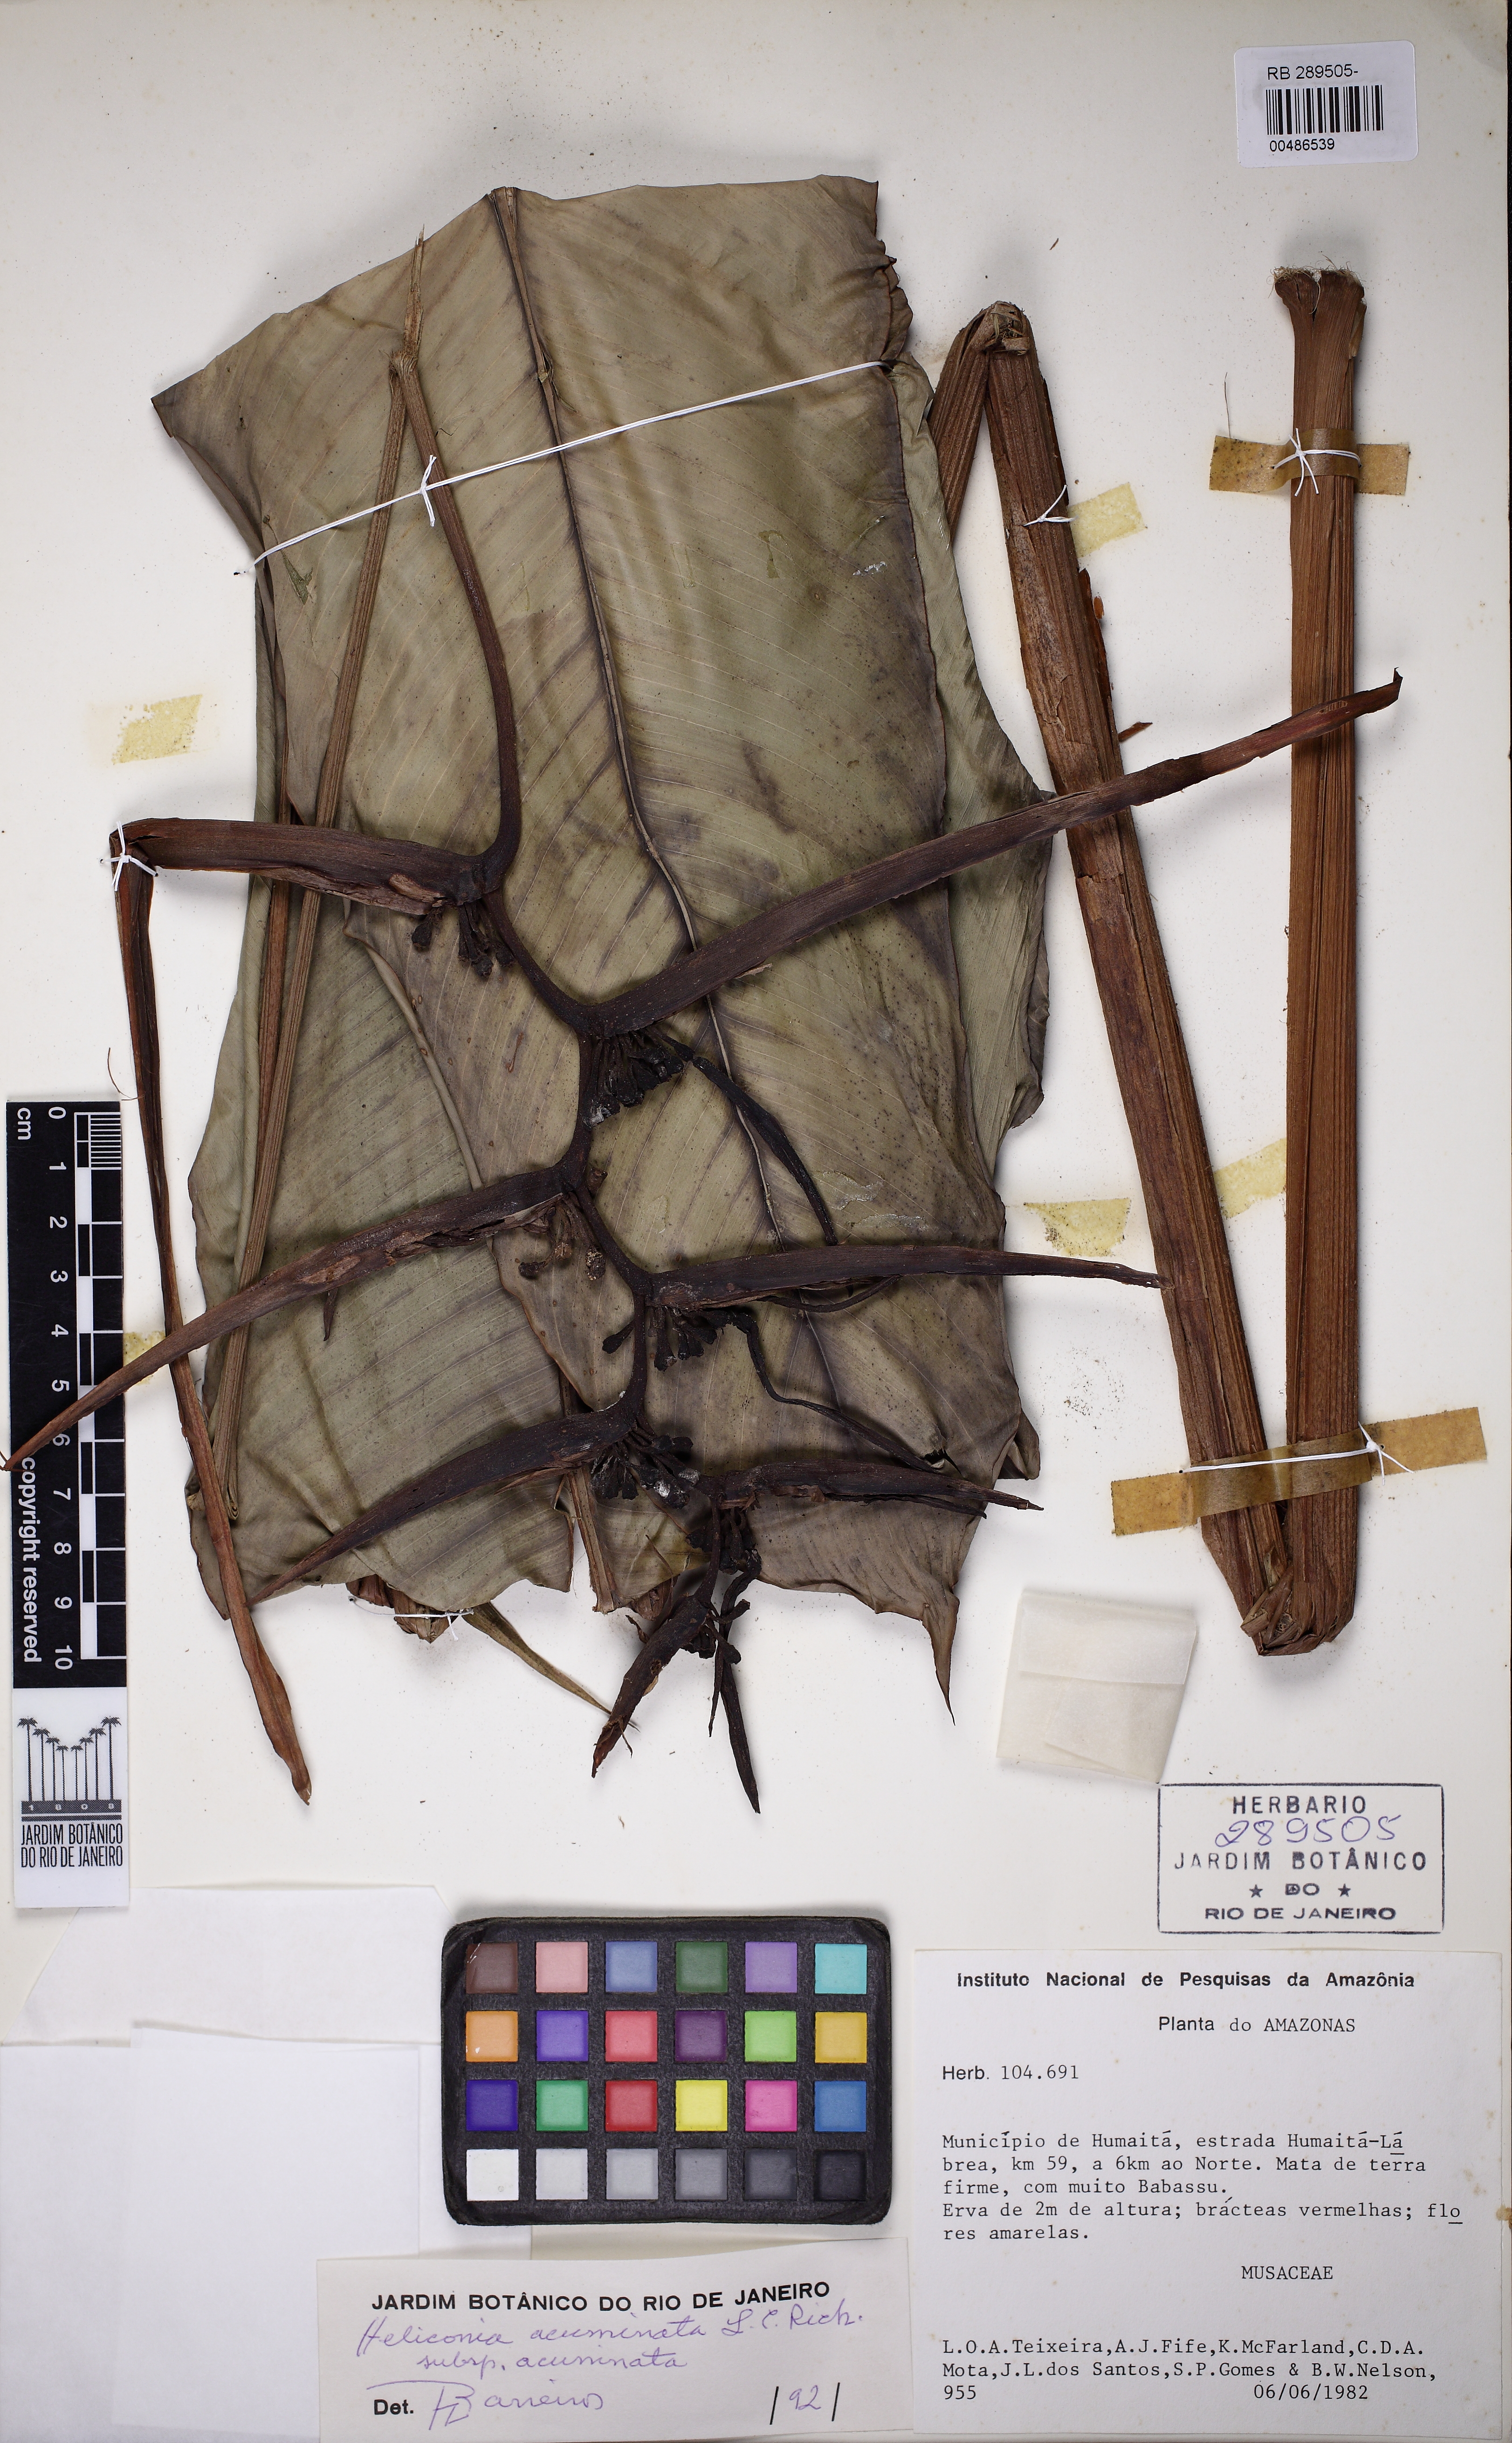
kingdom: Plantae
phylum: Tracheophyta
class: Liliopsida
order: Zingiberales
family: Heliconiaceae
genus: Heliconia
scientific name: Heliconia acuminata
